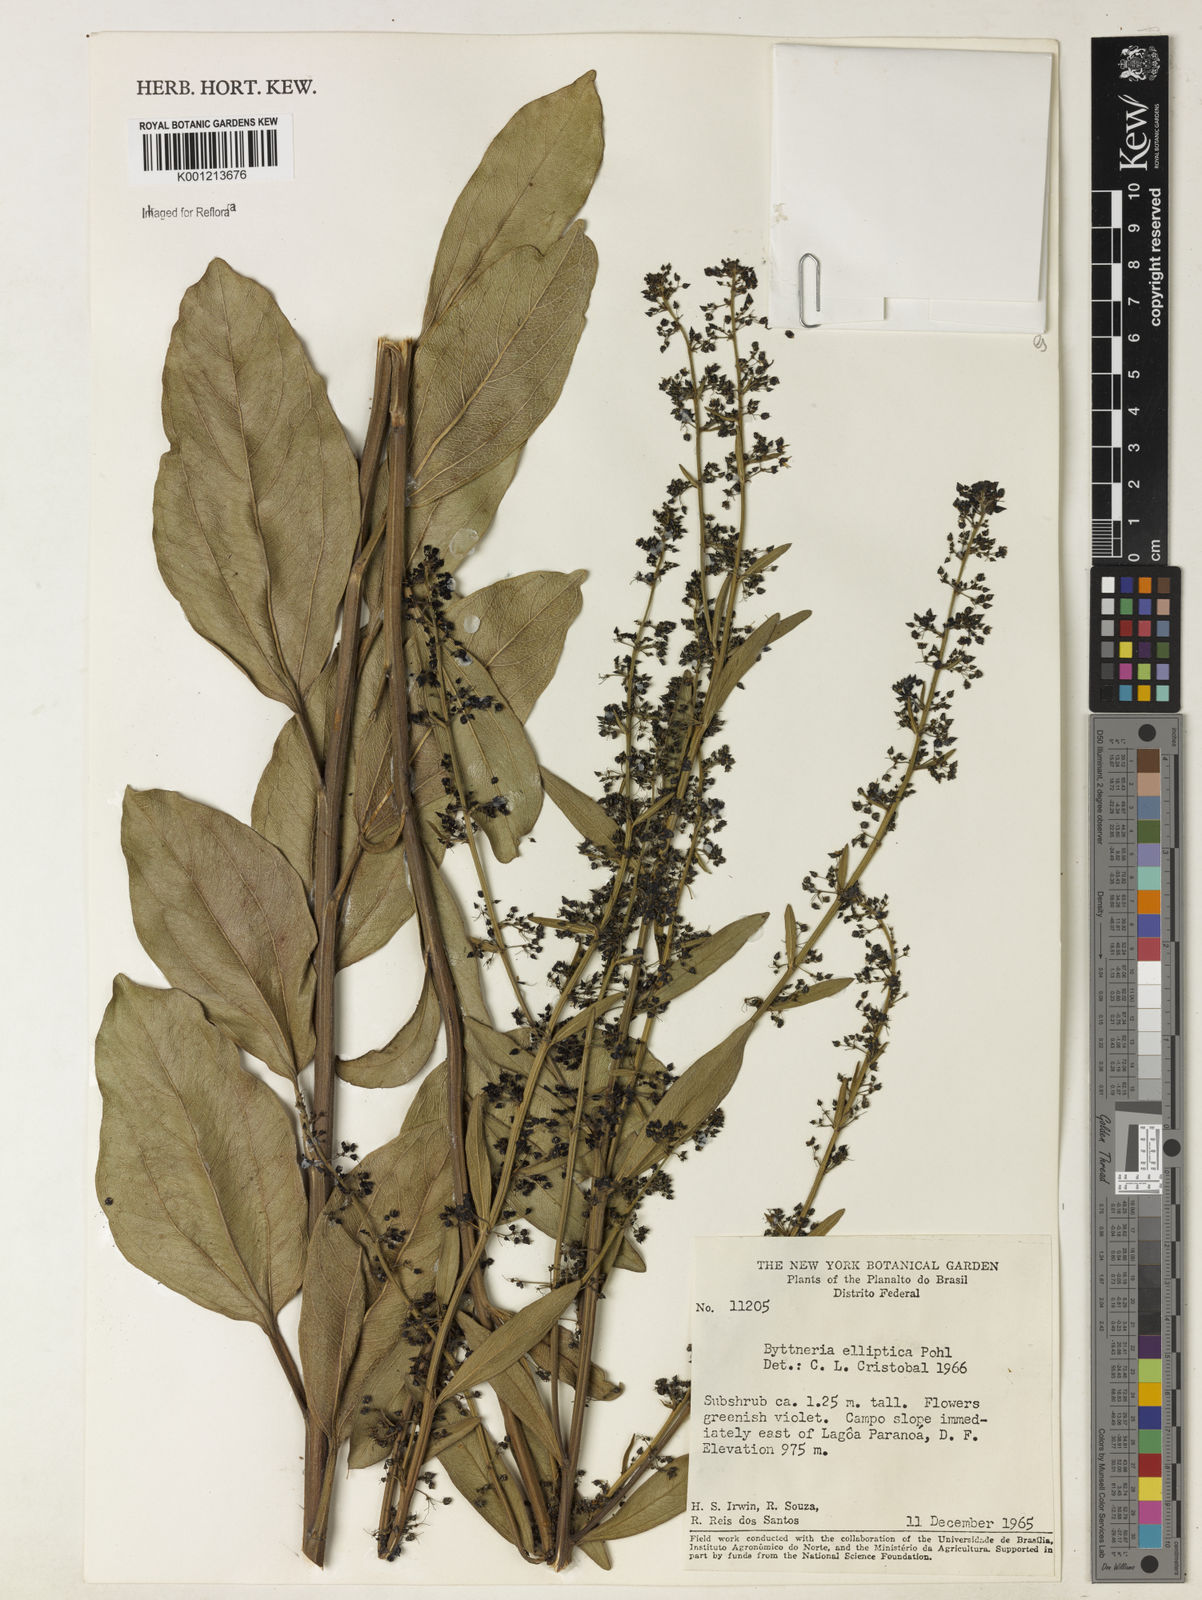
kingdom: Plantae
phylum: Tracheophyta
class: Magnoliopsida
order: Malvales
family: Malvaceae
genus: Byttneria
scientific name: Byttneria elliptica
